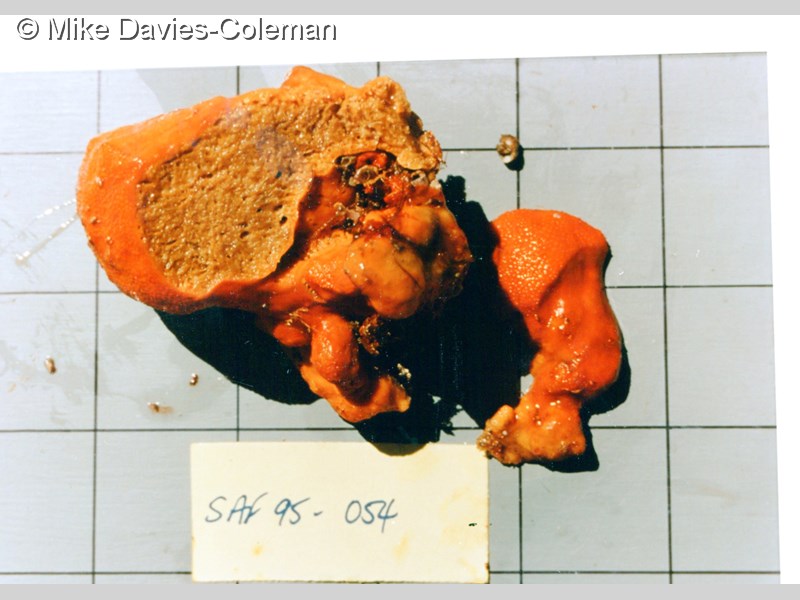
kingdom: Animalia
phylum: Porifera
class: Demospongiae
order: Poecilosclerida
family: Desmacididae
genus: Desmacidon
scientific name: Desmacidon
